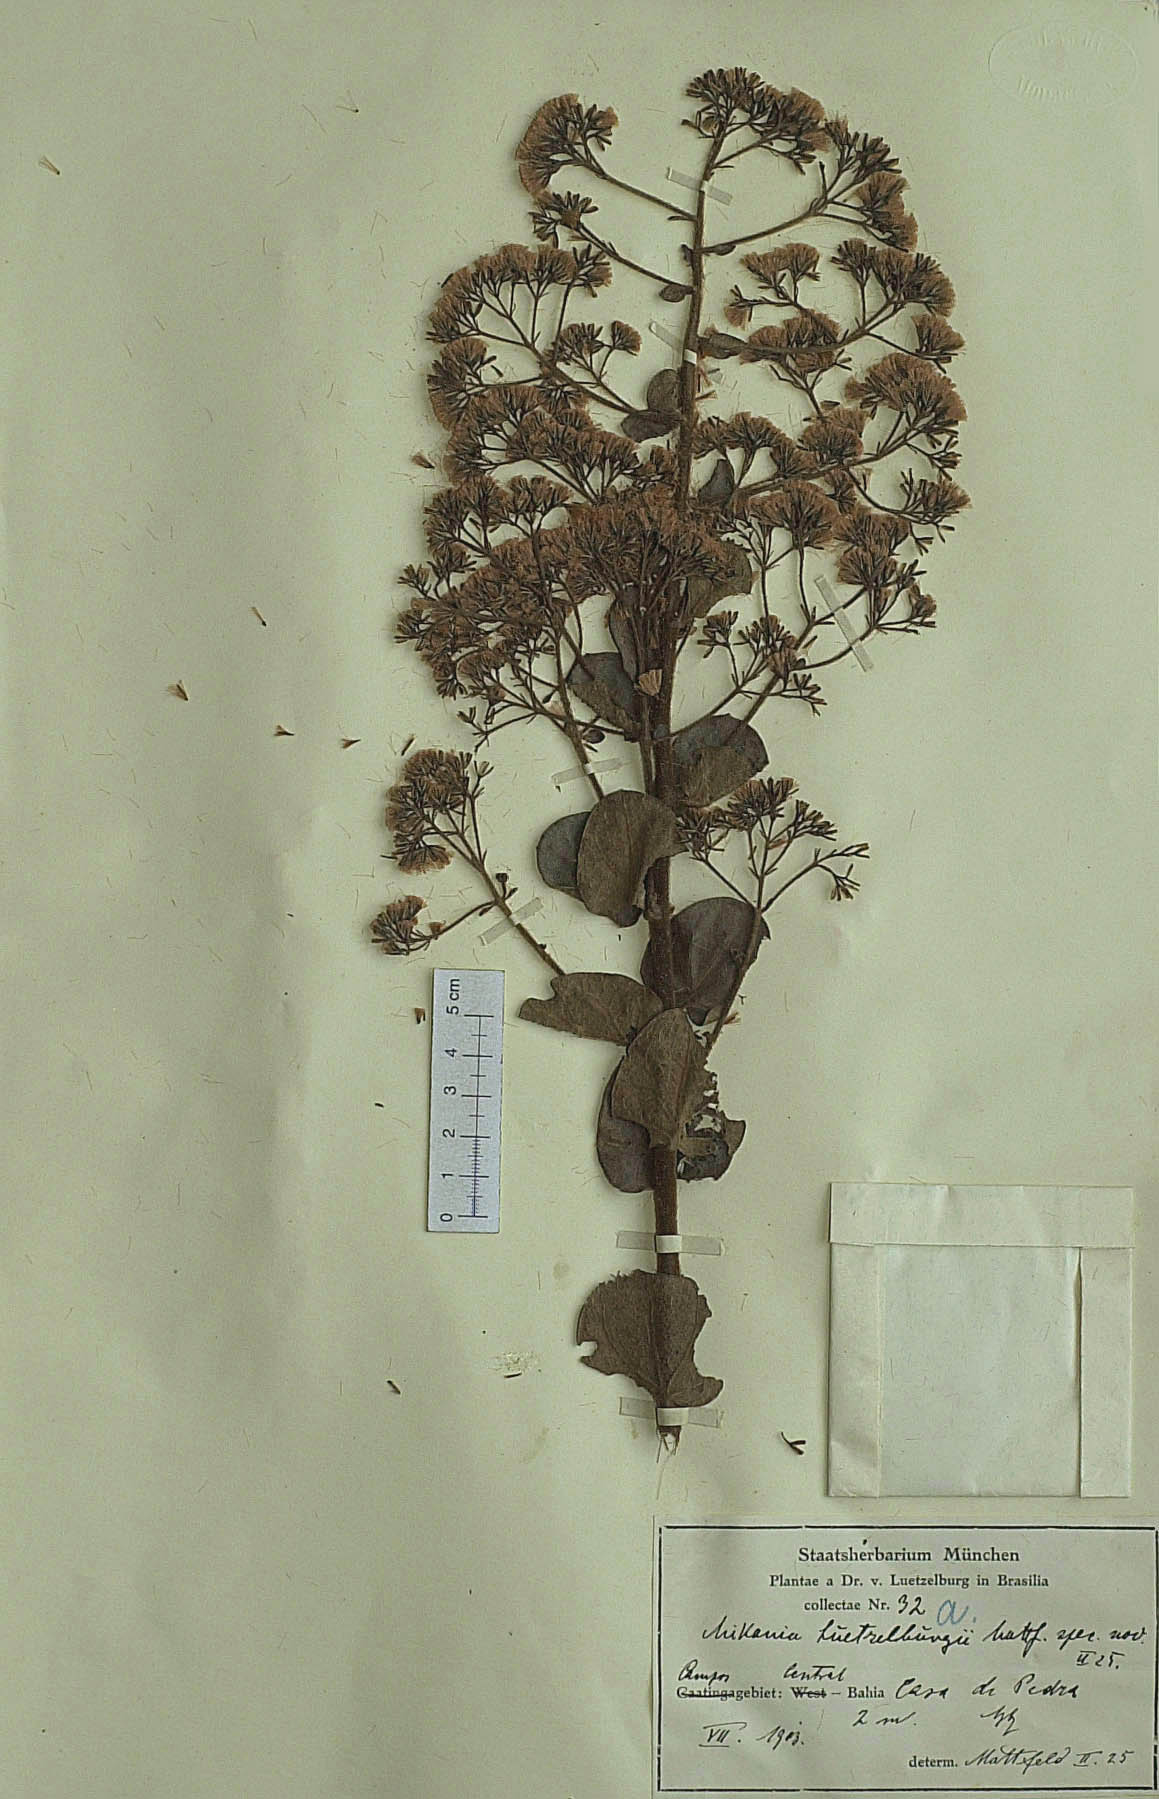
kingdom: Plantae
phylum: Tracheophyta
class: Magnoliopsida
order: Asterales
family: Asteraceae
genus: Mikania
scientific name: Mikania luetzelburgii
